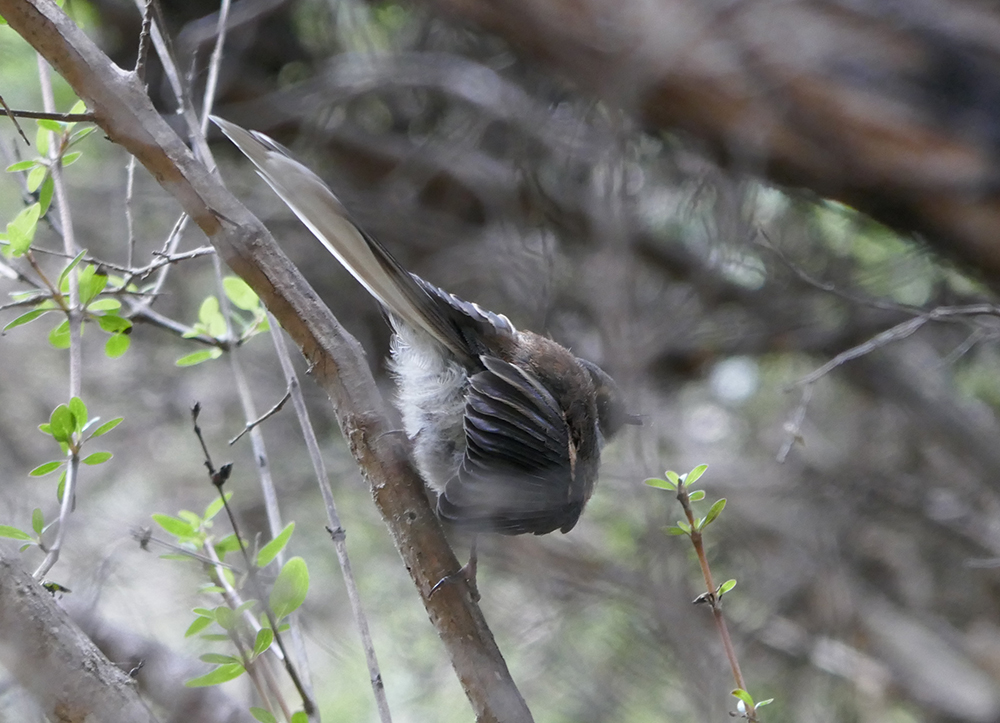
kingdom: Animalia
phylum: Chordata
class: Aves
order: Passeriformes
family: Rhipiduridae
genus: Rhipidura
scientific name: Rhipidura fuliginosa
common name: New zealand fantail
